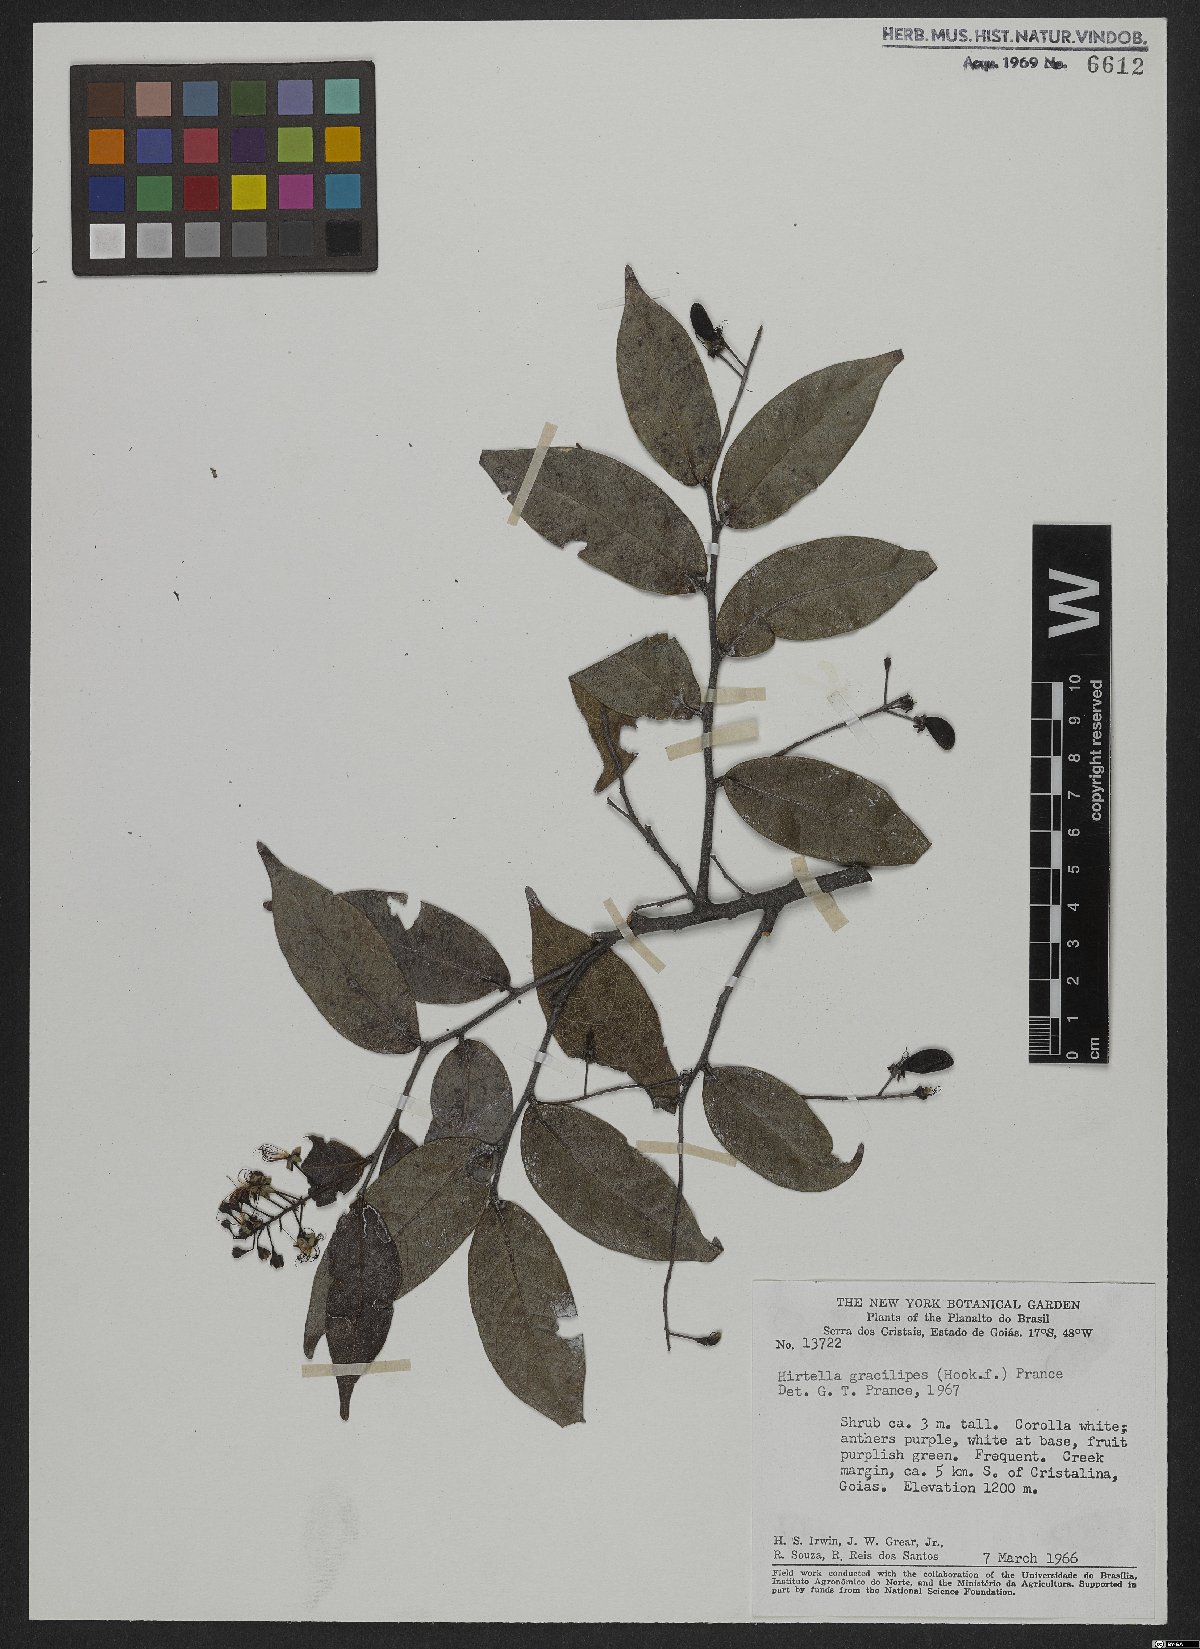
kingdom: Plantae
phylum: Tracheophyta
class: Magnoliopsida
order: Malpighiales
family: Chrysobalanaceae
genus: Hirtella
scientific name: Hirtella gracilipes
